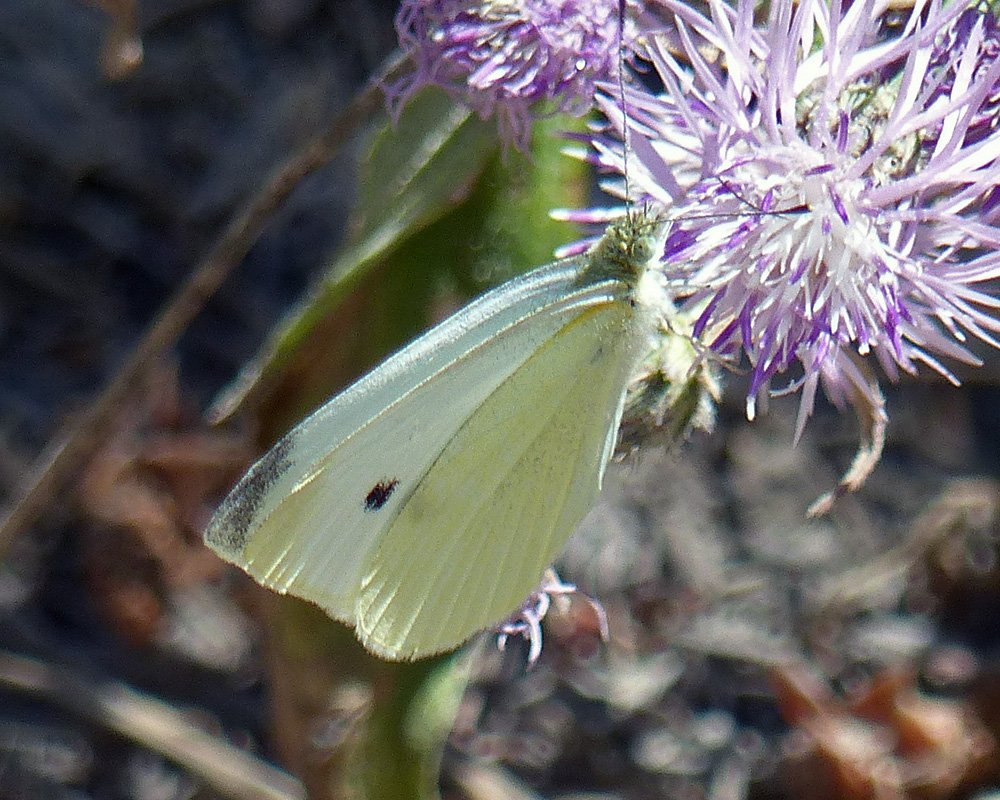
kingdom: Animalia
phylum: Arthropoda
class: Insecta
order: Lepidoptera
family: Pieridae
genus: Pieris
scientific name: Pieris rapae
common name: Cabbage White
